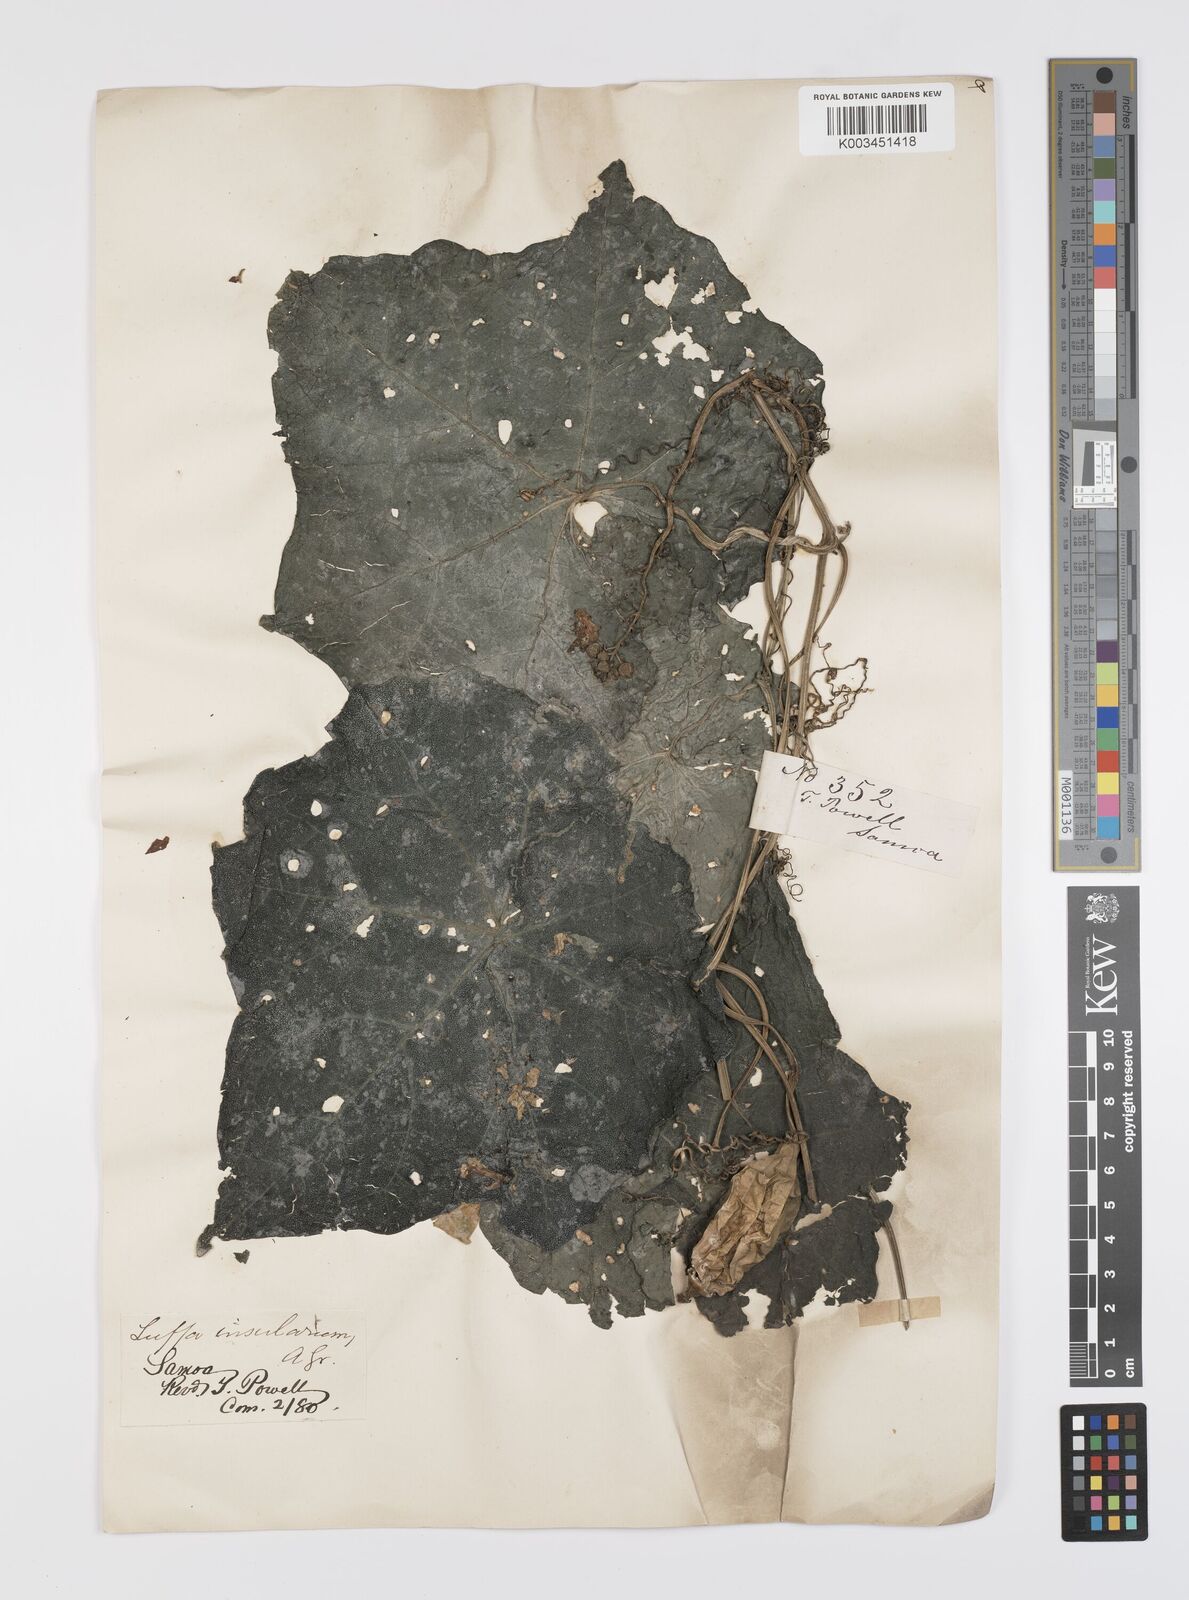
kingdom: Plantae
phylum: Tracheophyta
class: Magnoliopsida
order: Cucurbitales
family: Cucurbitaceae
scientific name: Cucurbitaceae
